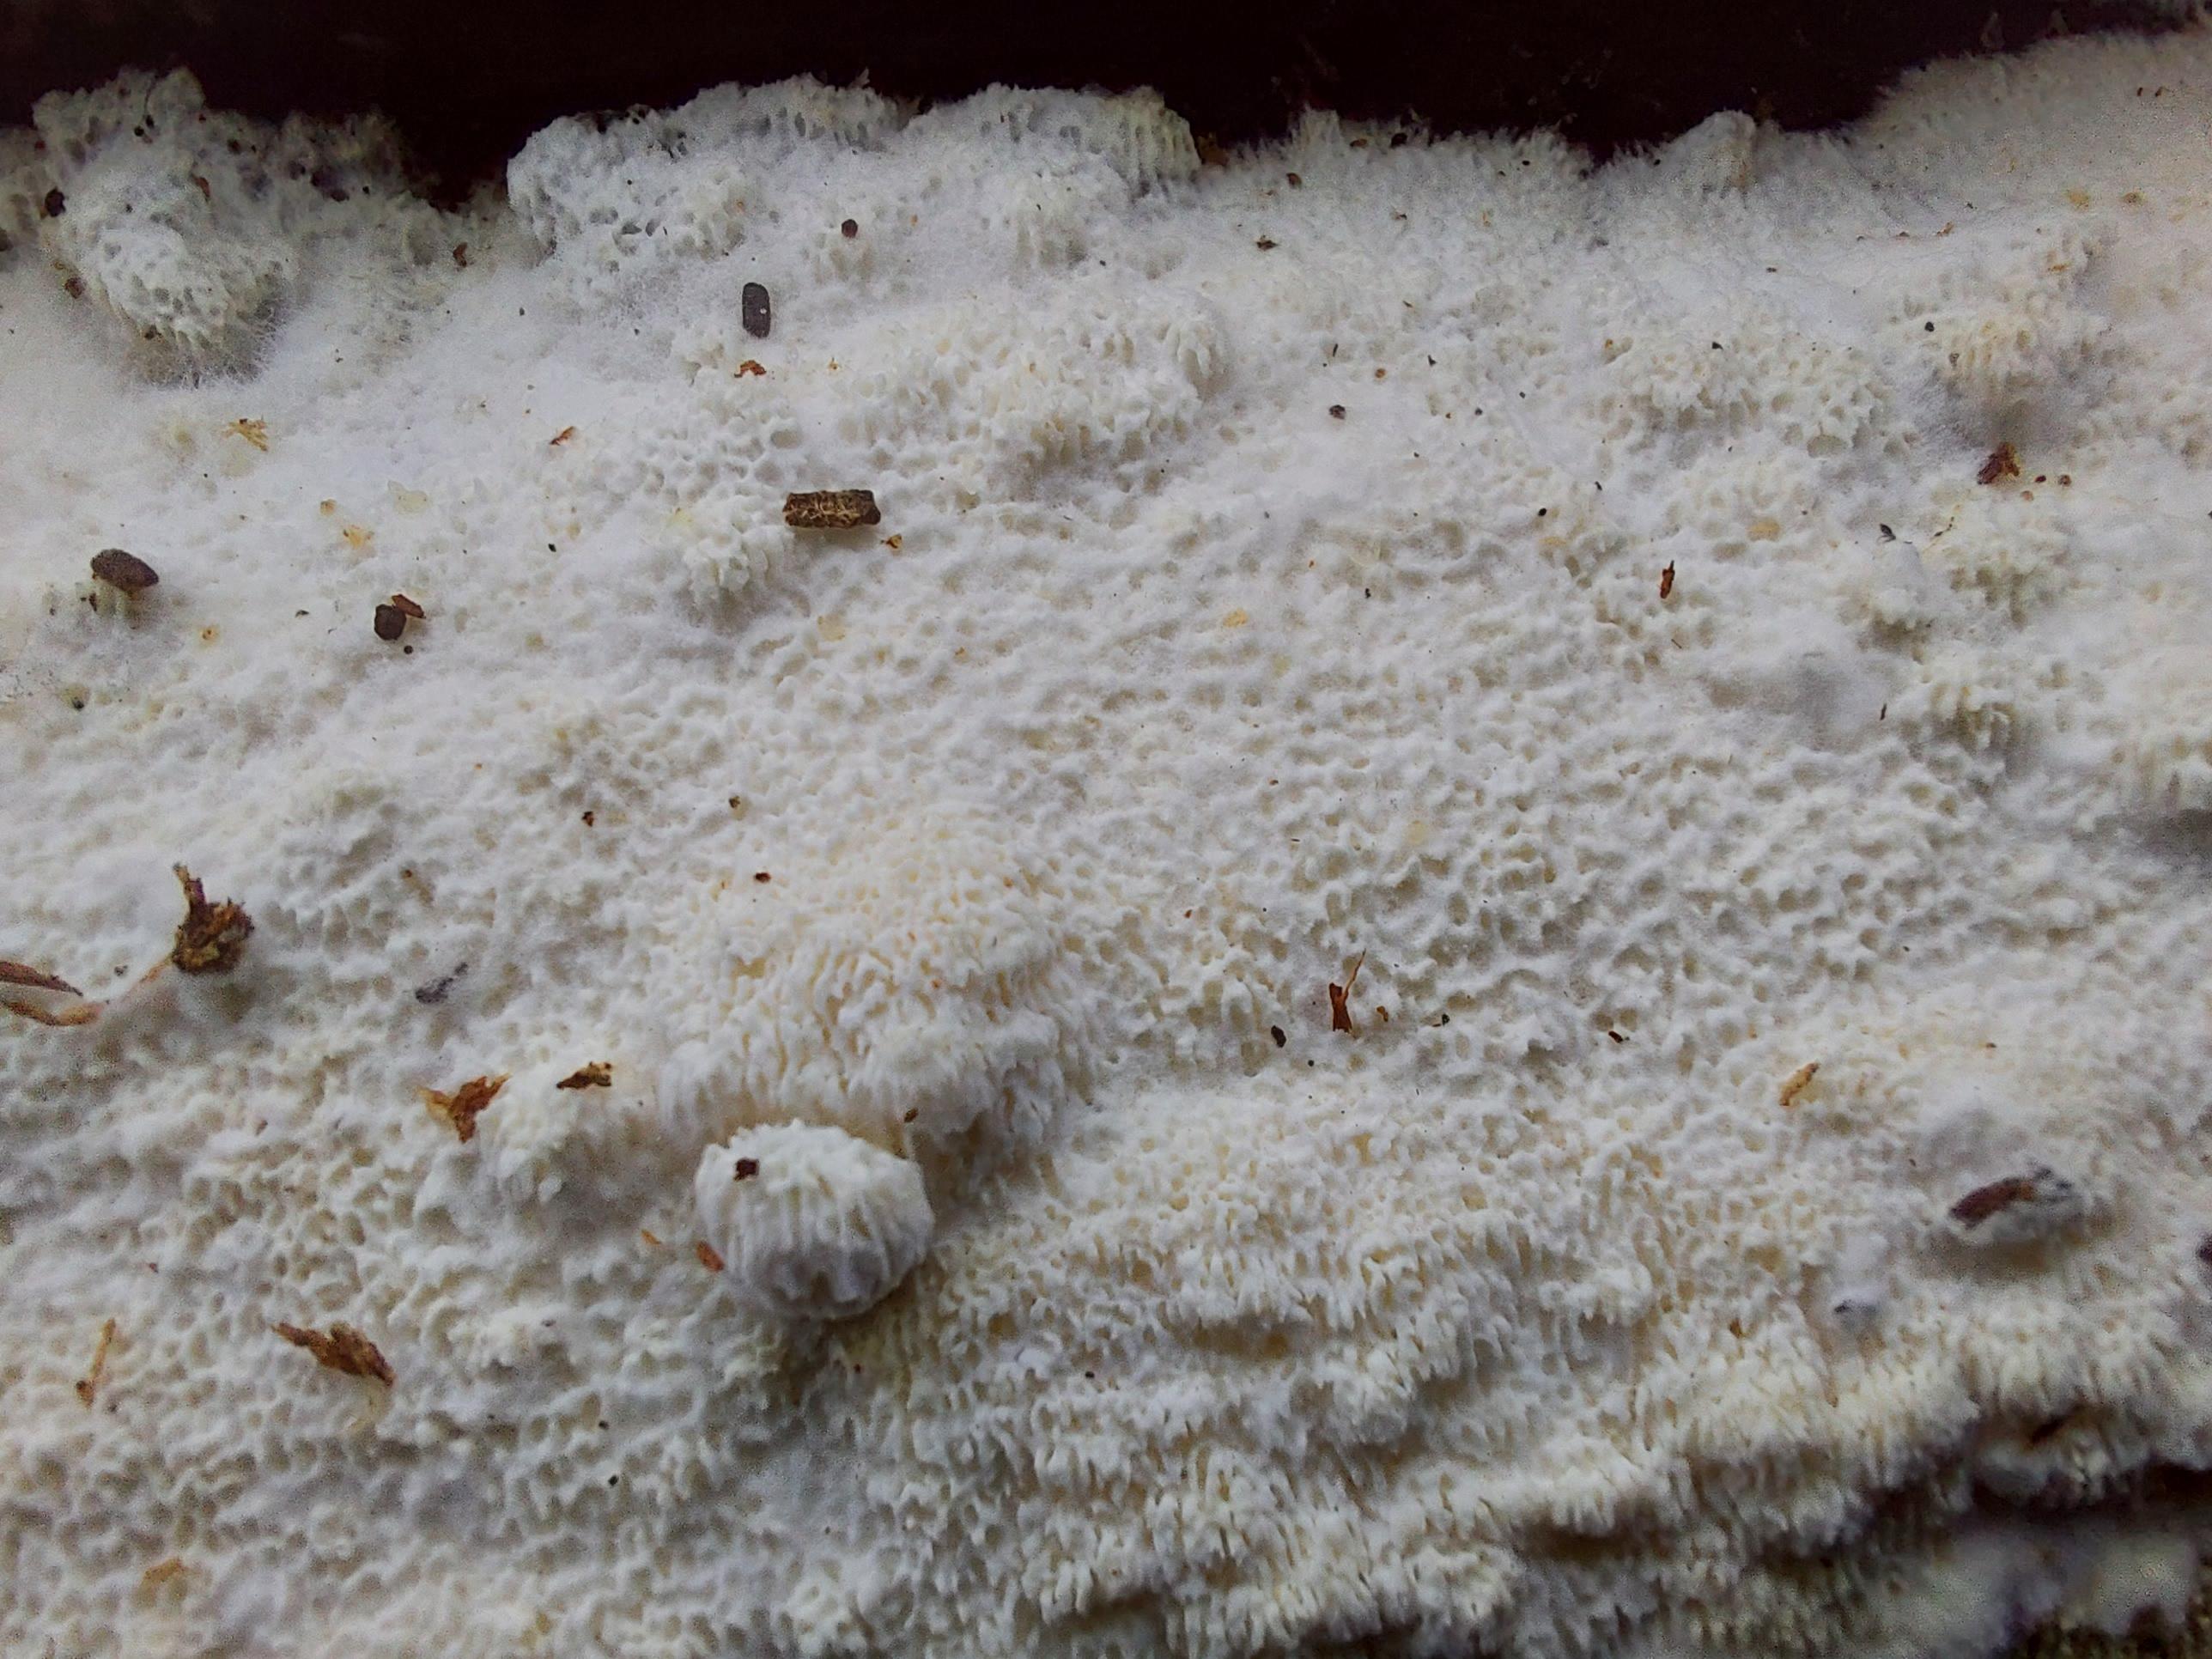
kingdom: Fungi
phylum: Basidiomycota
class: Agaricomycetes
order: Polyporales
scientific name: Polyporales
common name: poresvampordenen
